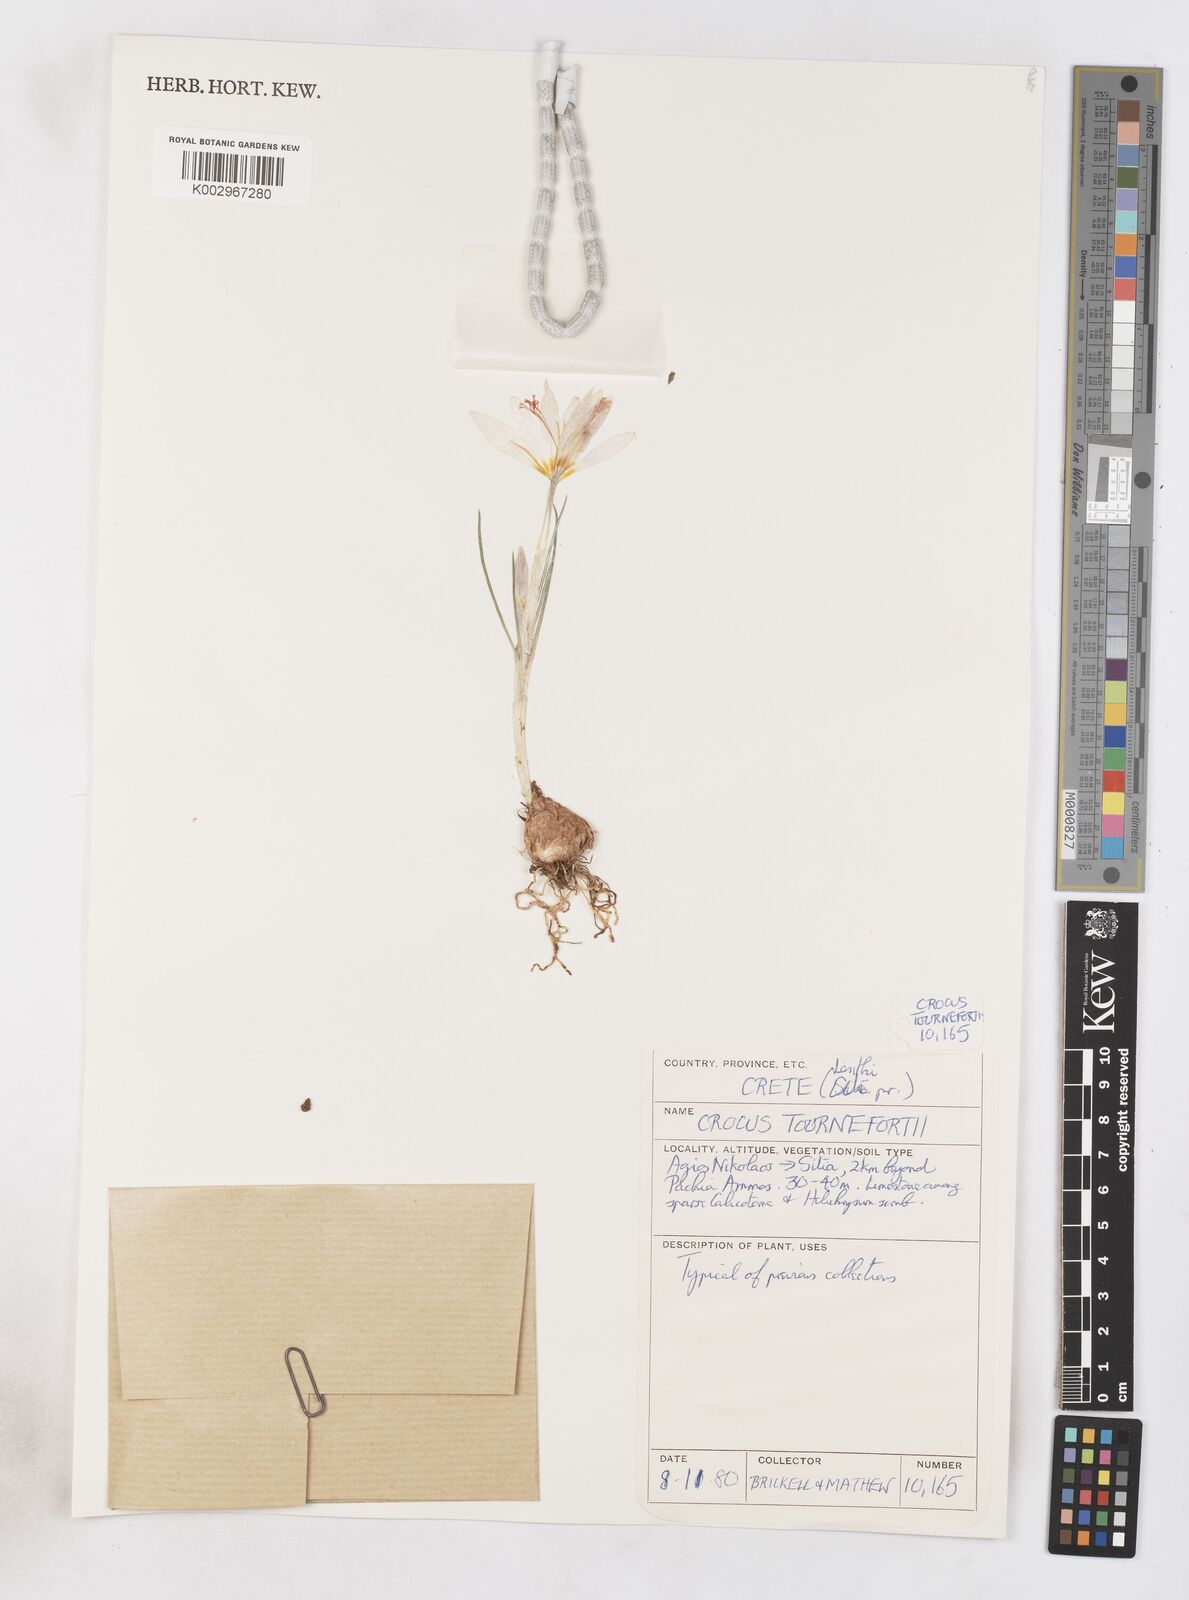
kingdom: Plantae
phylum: Tracheophyta
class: Liliopsida
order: Asparagales
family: Iridaceae
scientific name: Iridaceae
